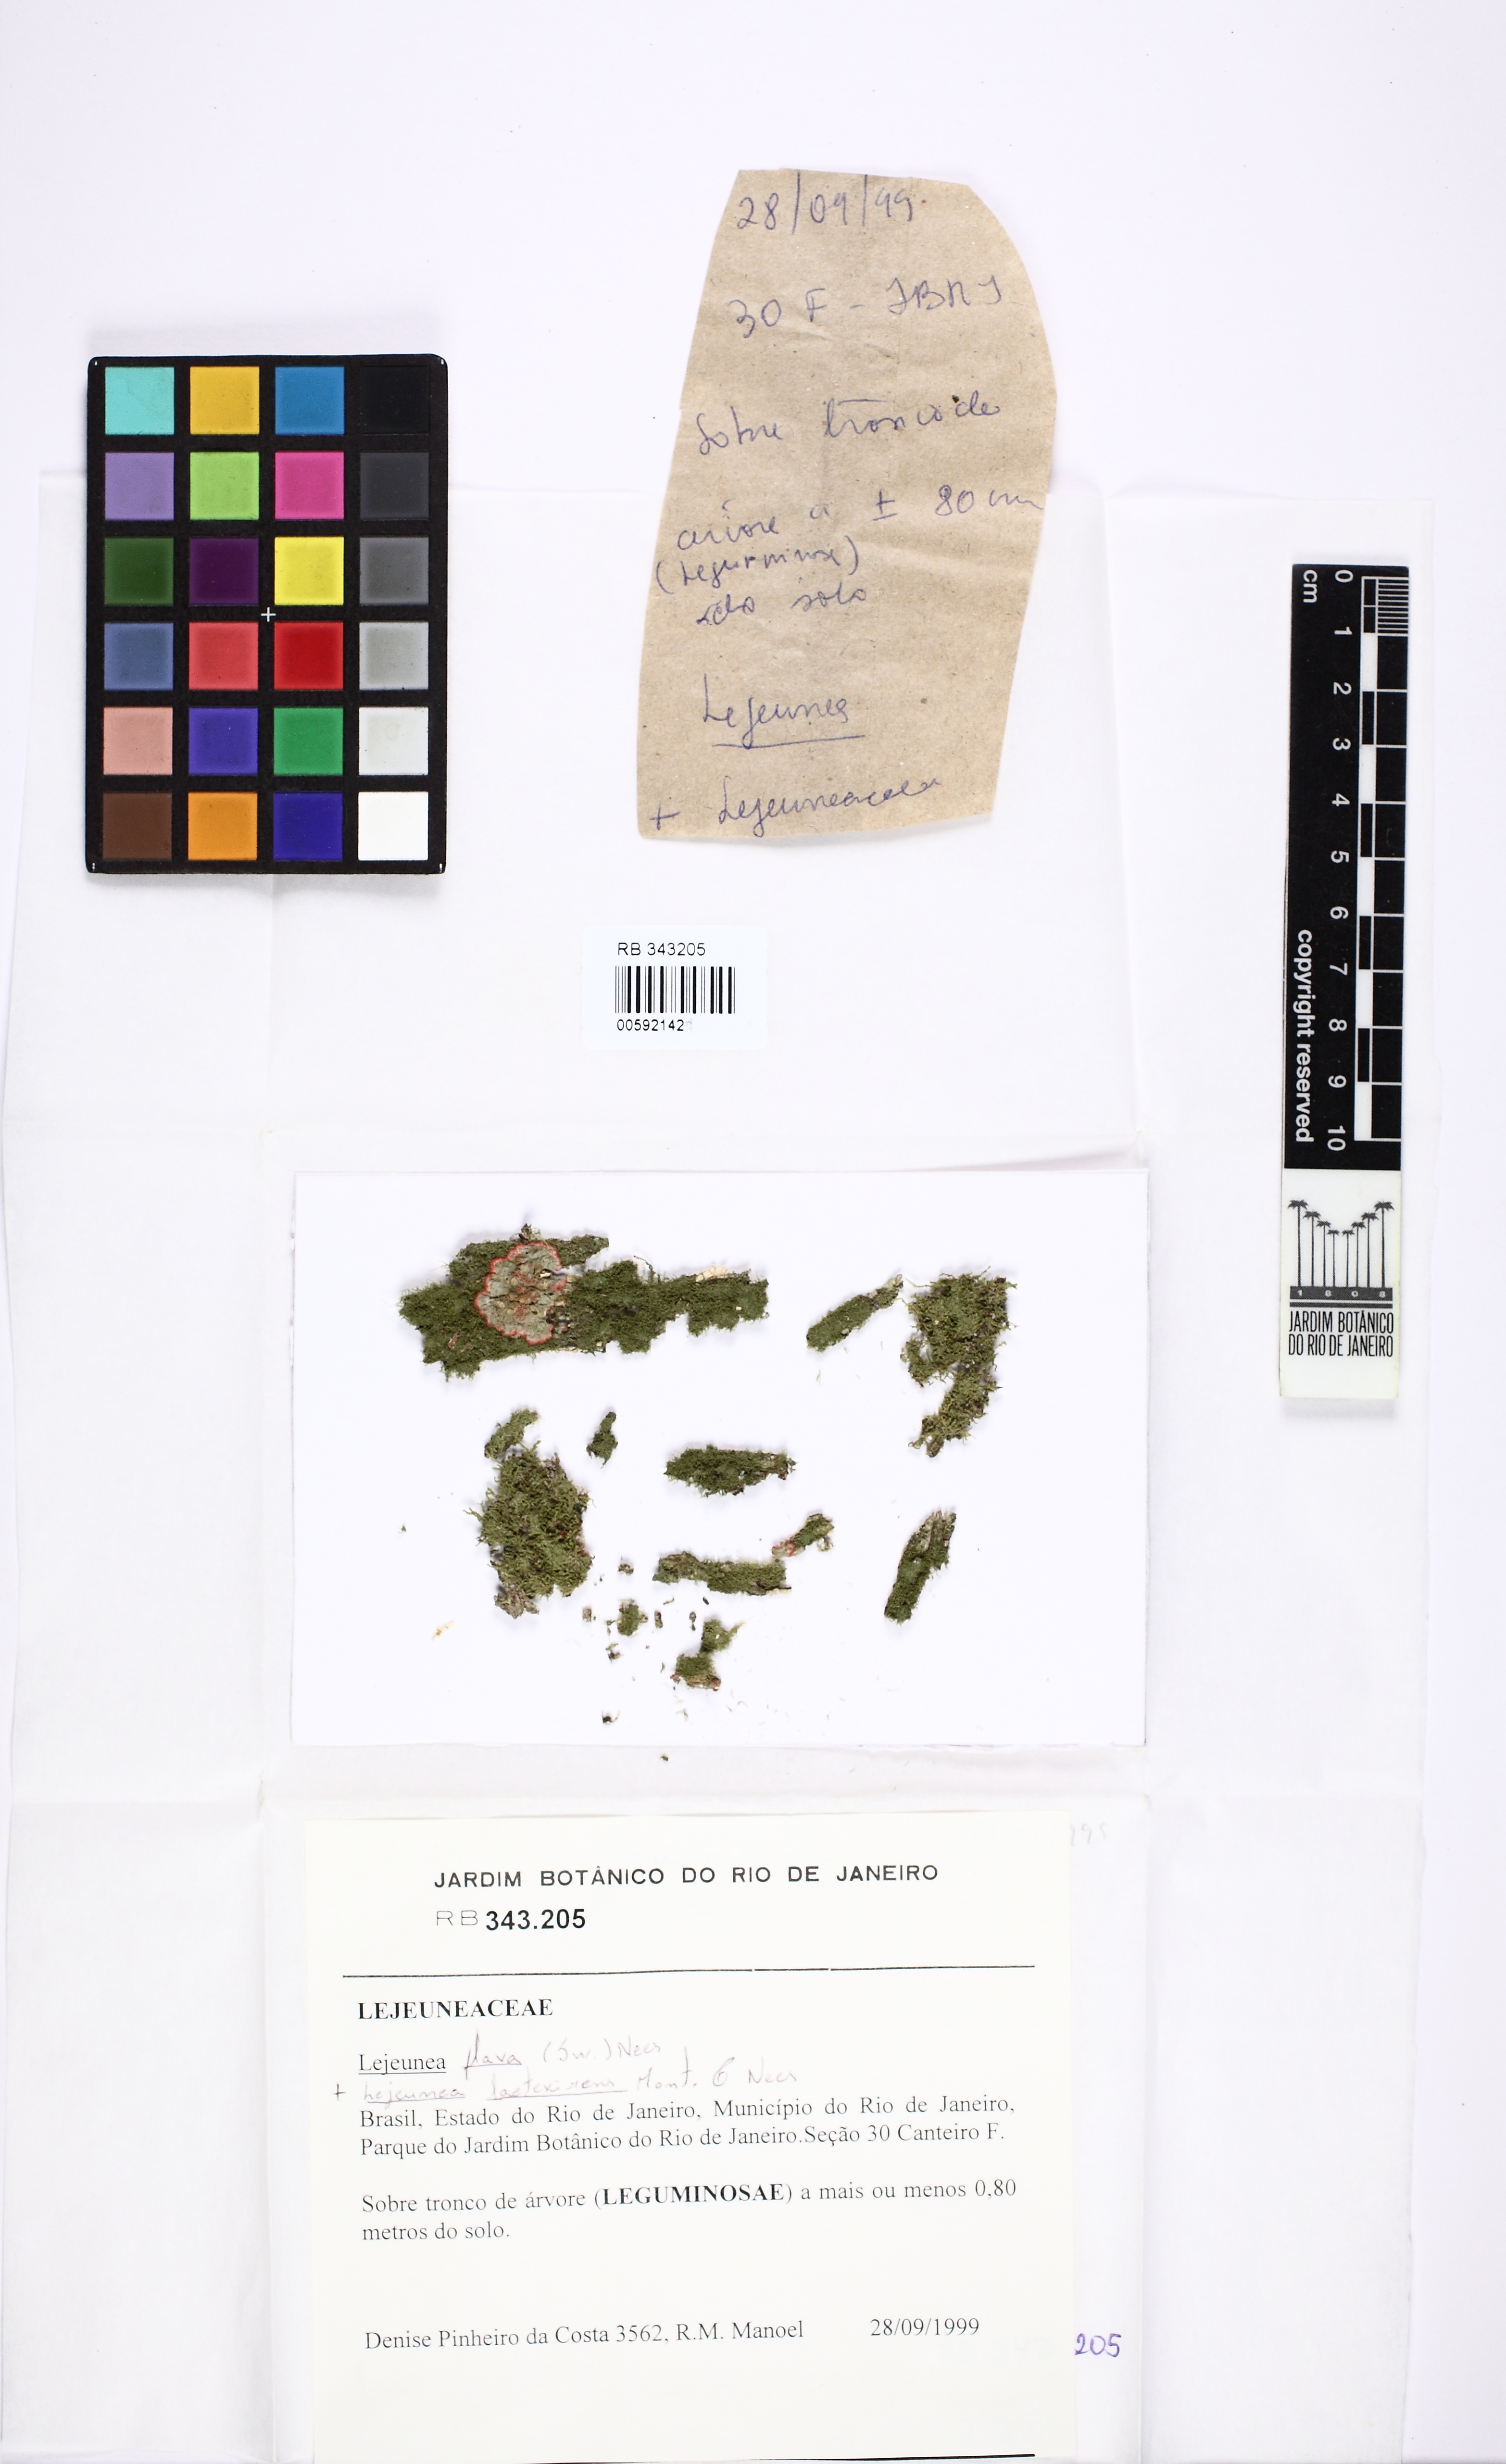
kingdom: Plantae
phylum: Marchantiophyta
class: Jungermanniopsida
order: Porellales
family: Lejeuneaceae
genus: Lejeunea
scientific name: Lejeunea flava
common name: Yellow pouncewort
